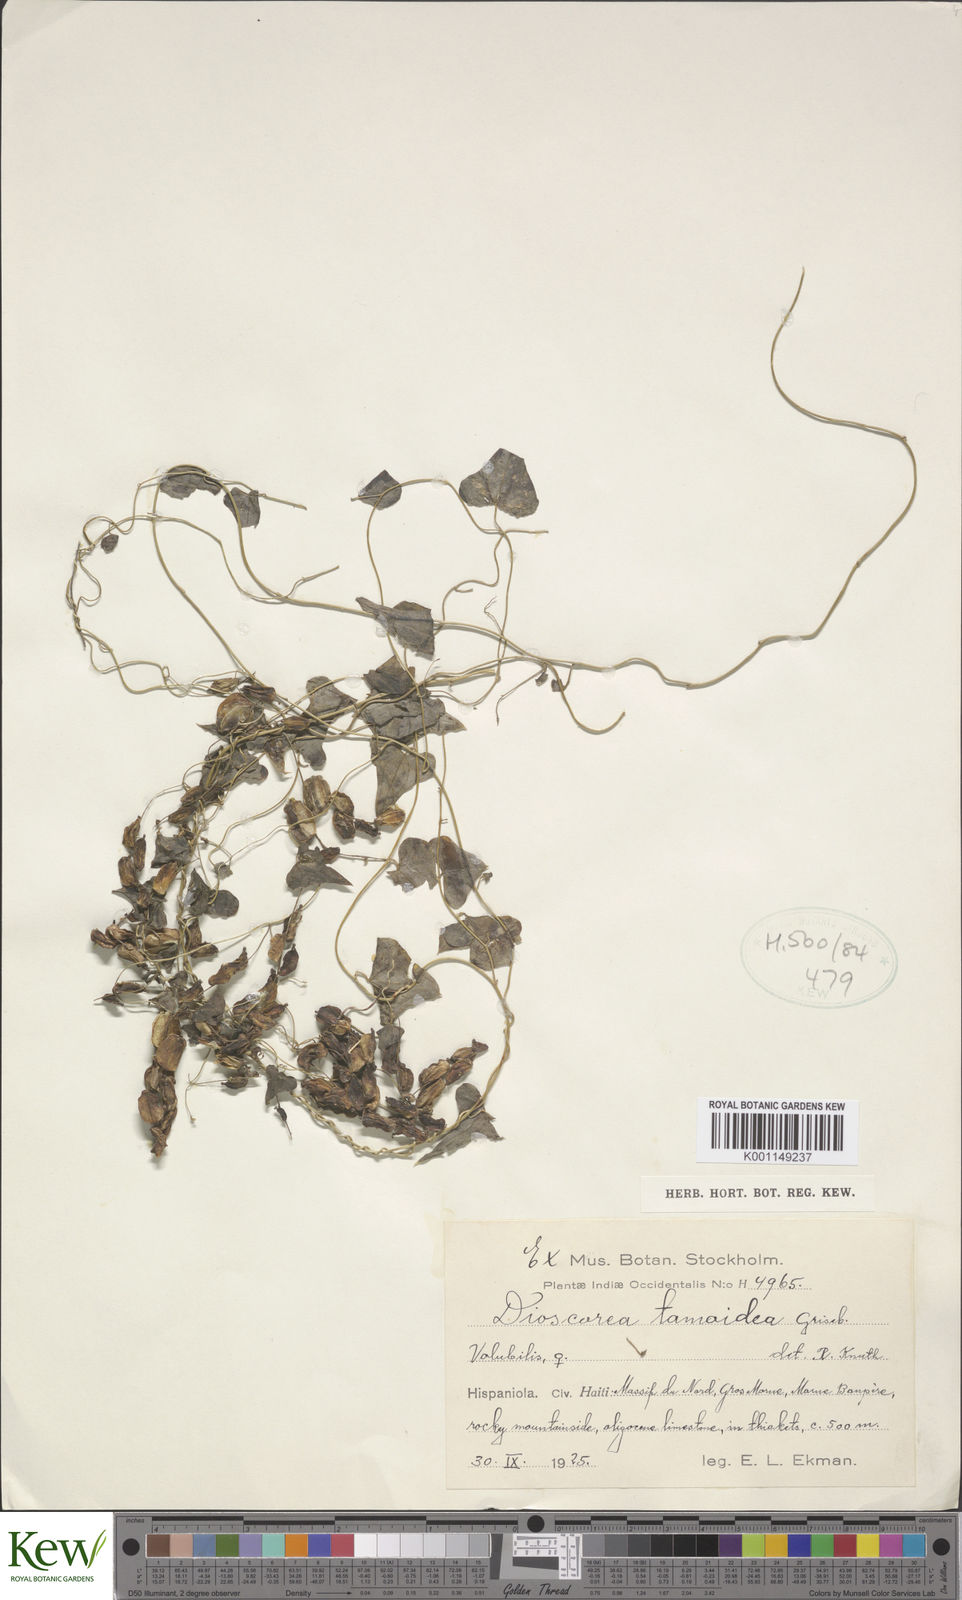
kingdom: Plantae
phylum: Tracheophyta
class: Liliopsida
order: Dioscoreales
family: Dioscoreaceae
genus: Dioscorea
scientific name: Dioscorea tamoidea
